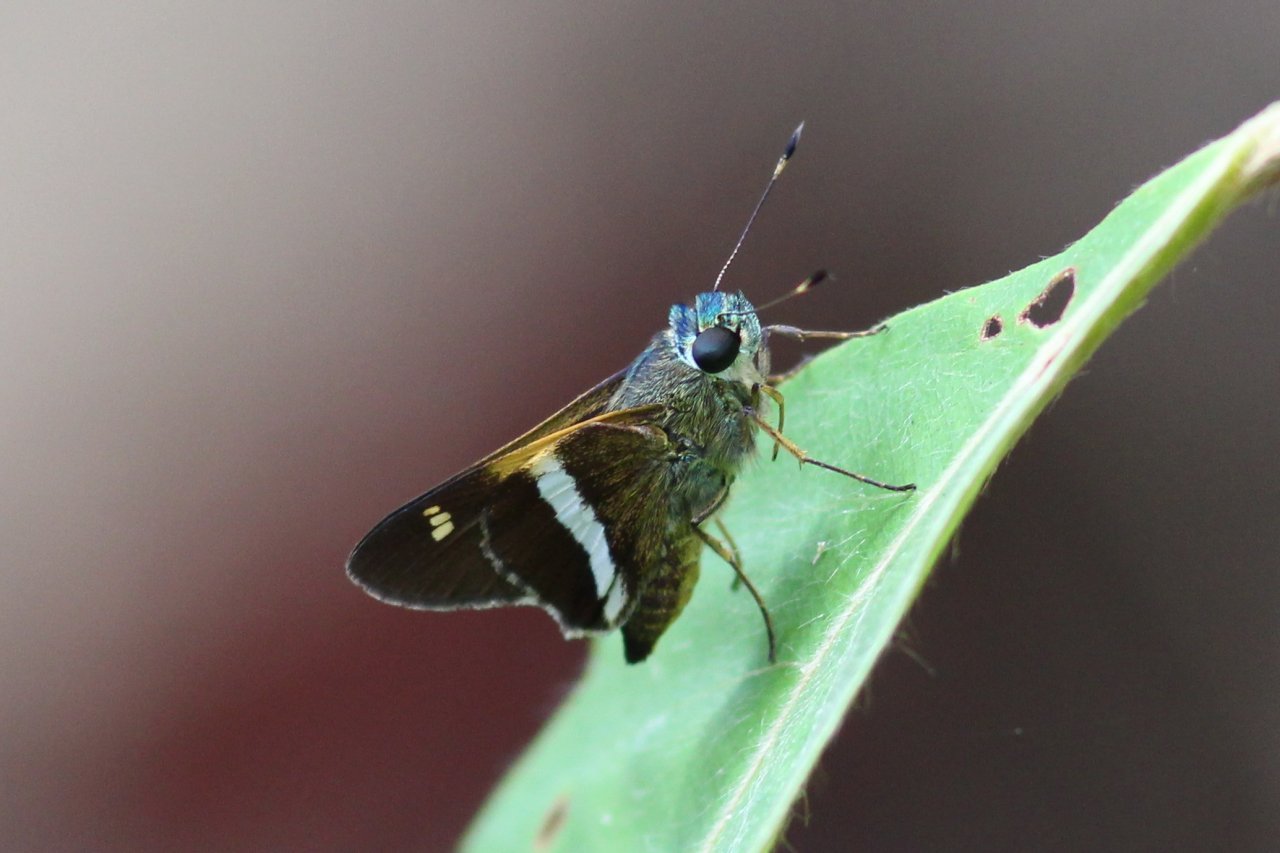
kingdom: Animalia
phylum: Arthropoda
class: Insecta
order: Lepidoptera
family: Hesperiidae
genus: Oxynthes
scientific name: Oxynthes corusca
